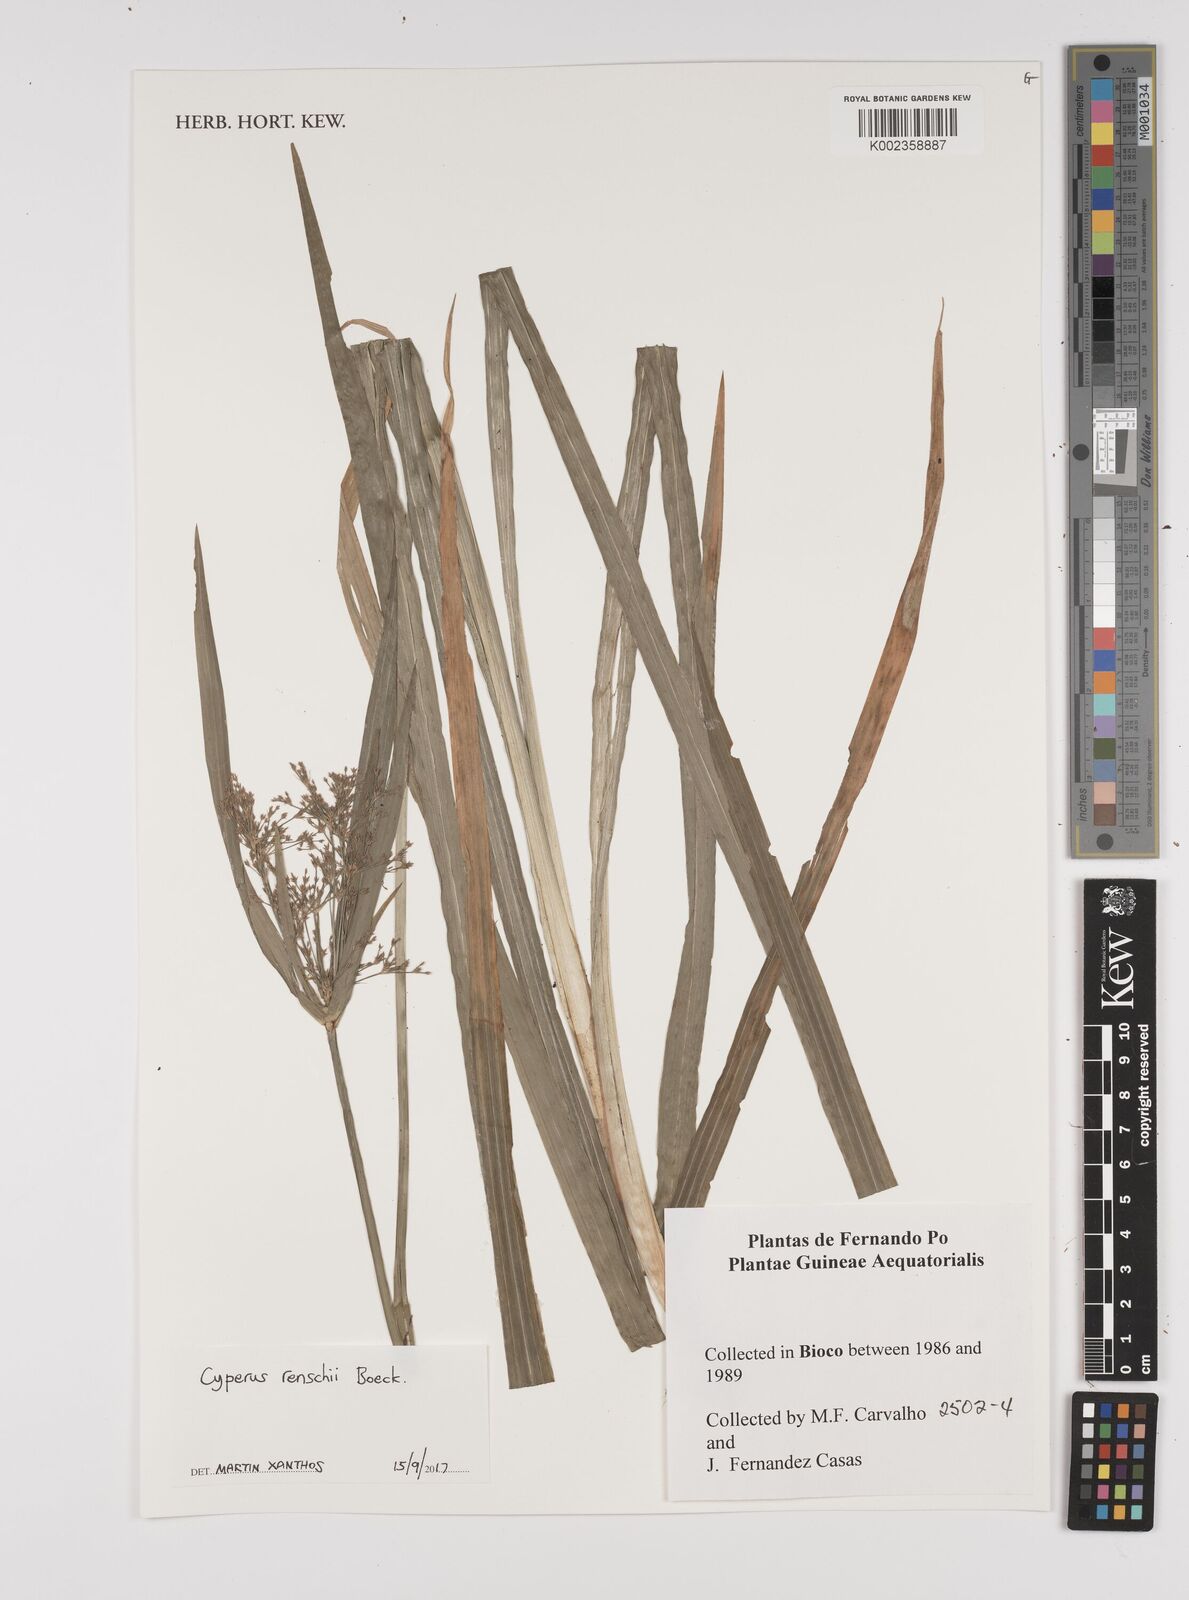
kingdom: Plantae
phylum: Tracheophyta
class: Liliopsida
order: Poales
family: Cyperaceae
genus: Cyperus
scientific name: Cyperus renschii
